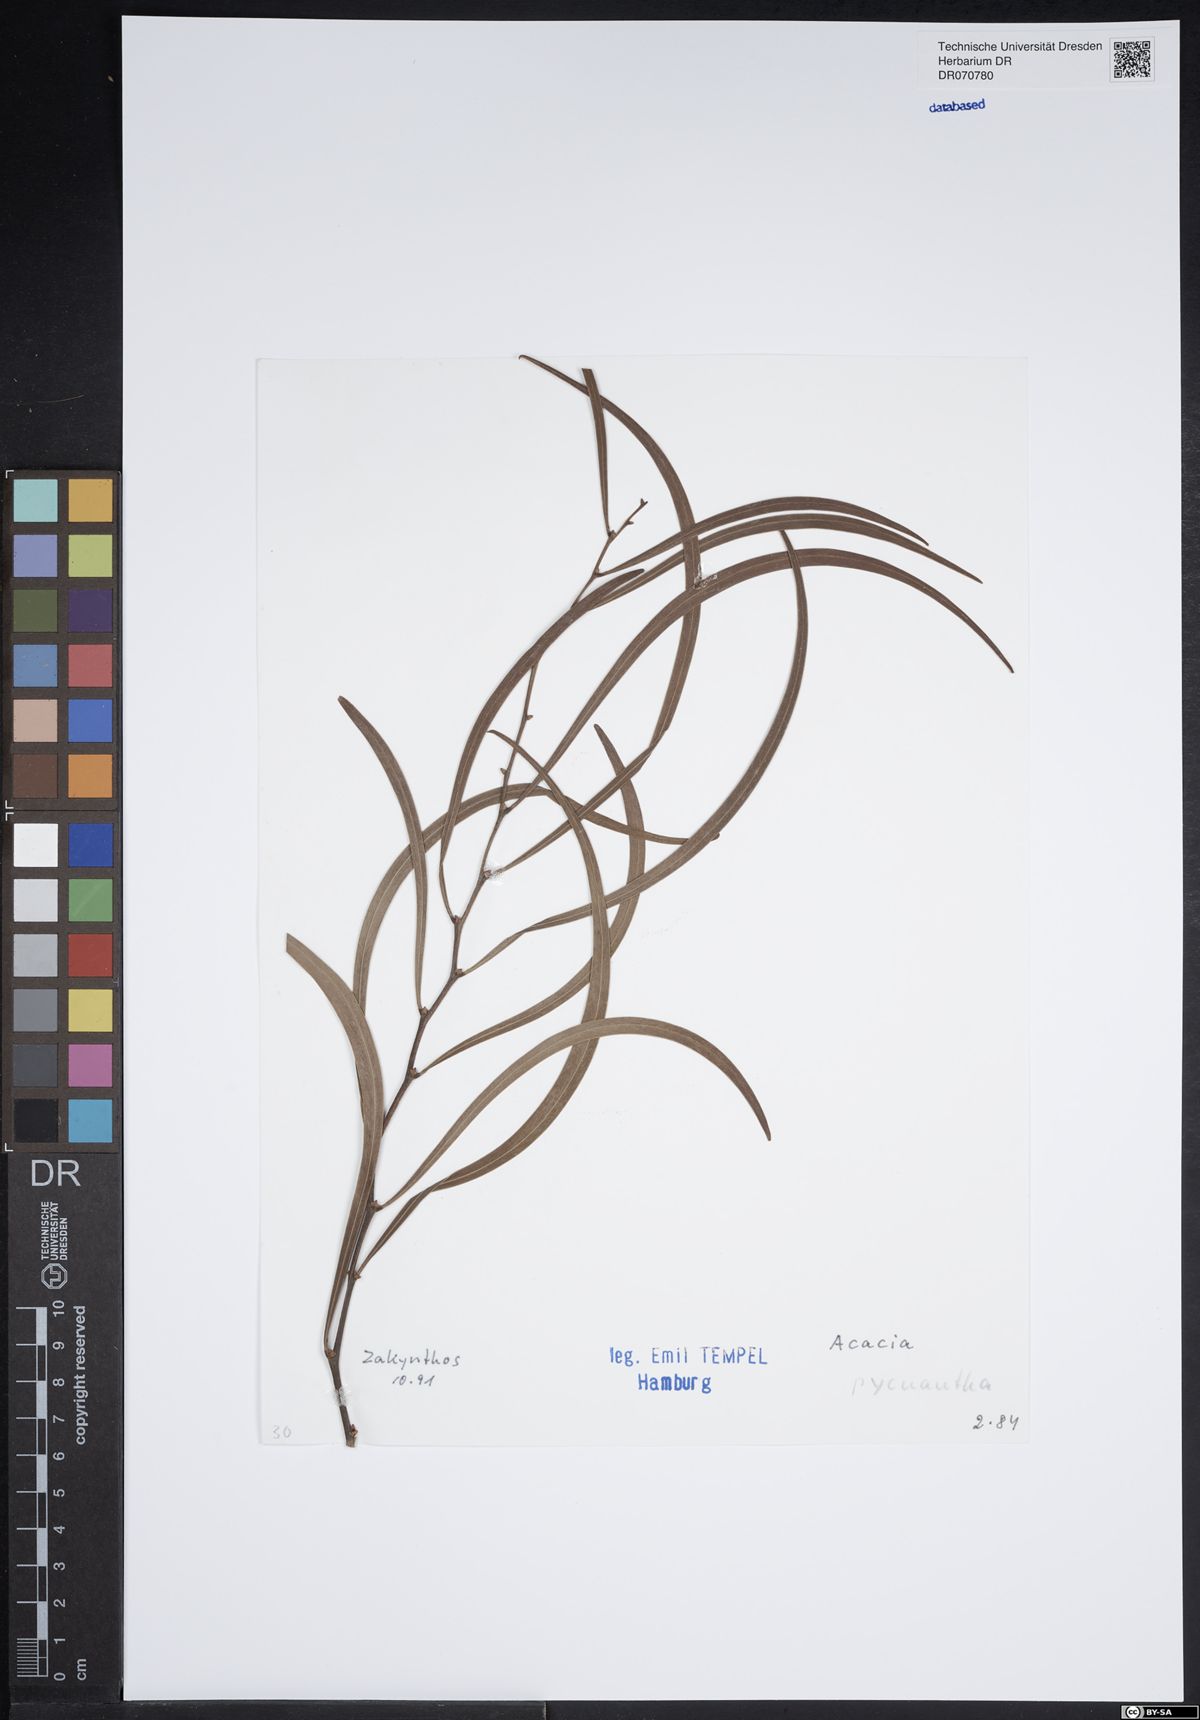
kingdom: Plantae
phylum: Tracheophyta
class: Magnoliopsida
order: Fabales
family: Fabaceae
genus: Acacia
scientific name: Acacia pycnantha
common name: Golden wattle
